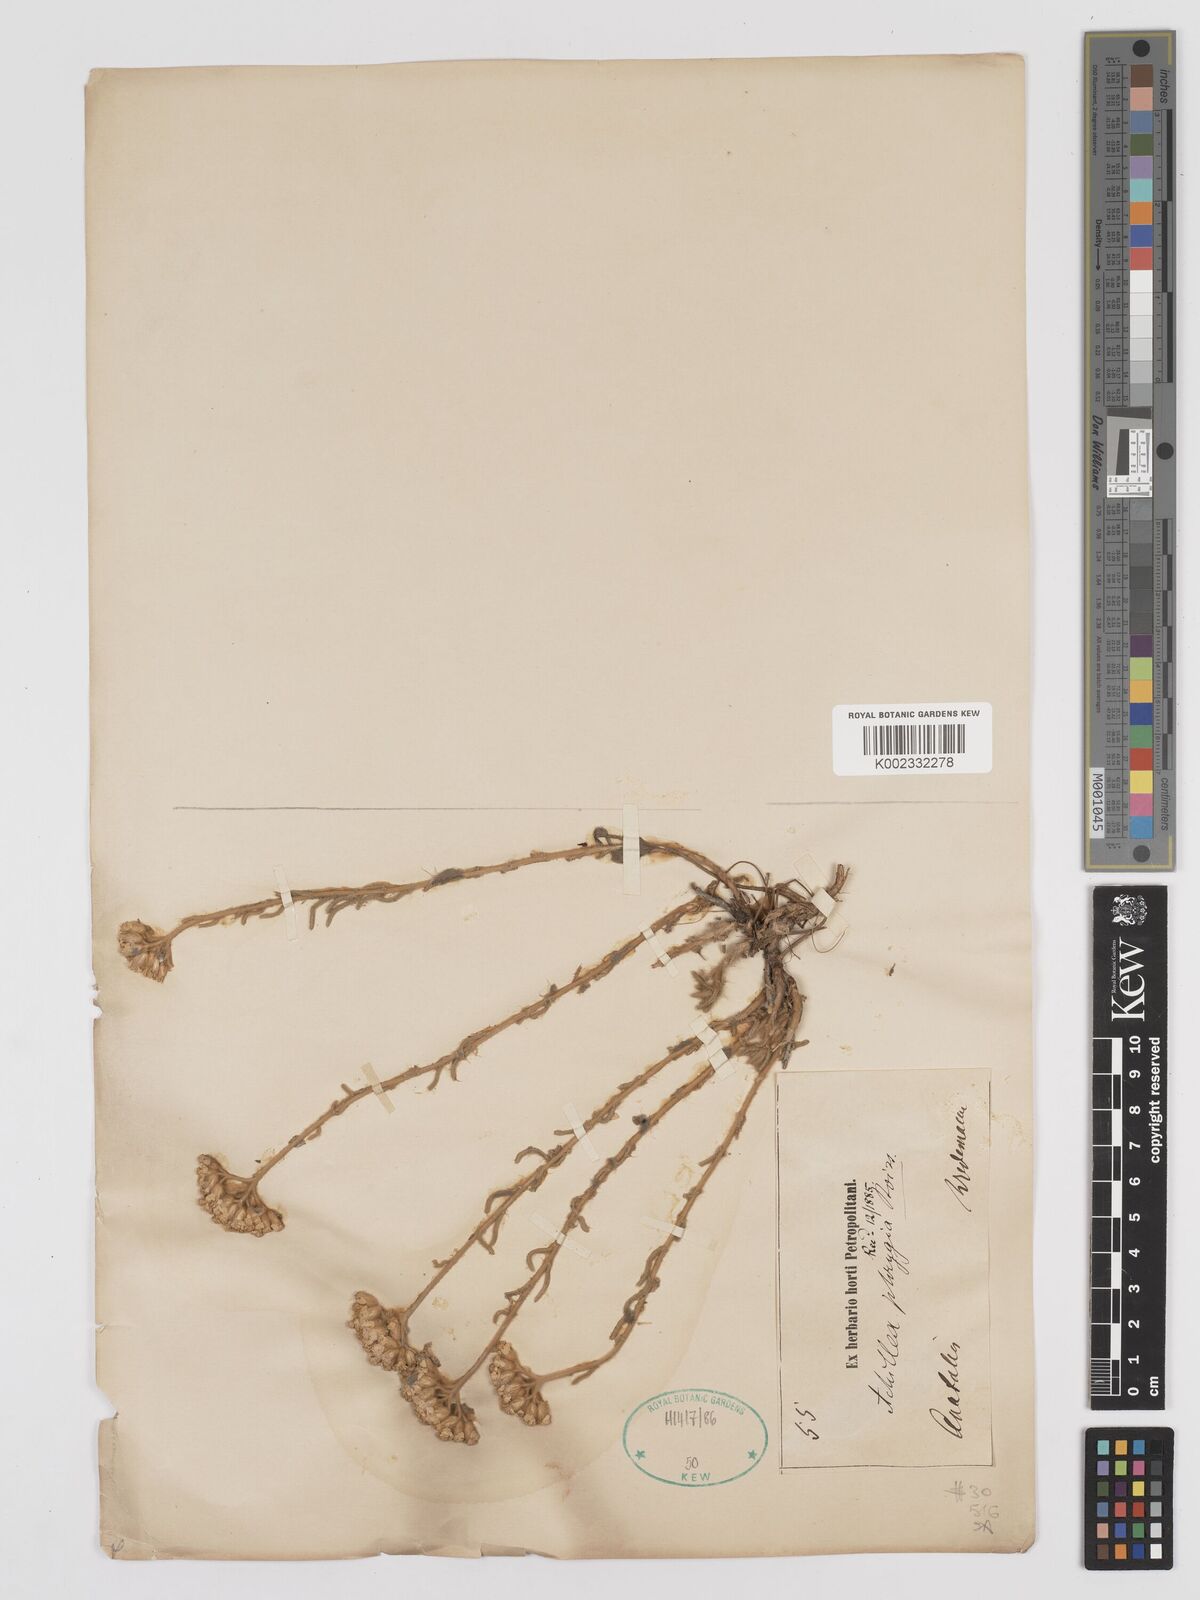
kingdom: Plantae
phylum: Tracheophyta
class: Magnoliopsida
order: Asterales
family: Asteraceae
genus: Achillea
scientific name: Achillea phrygia
